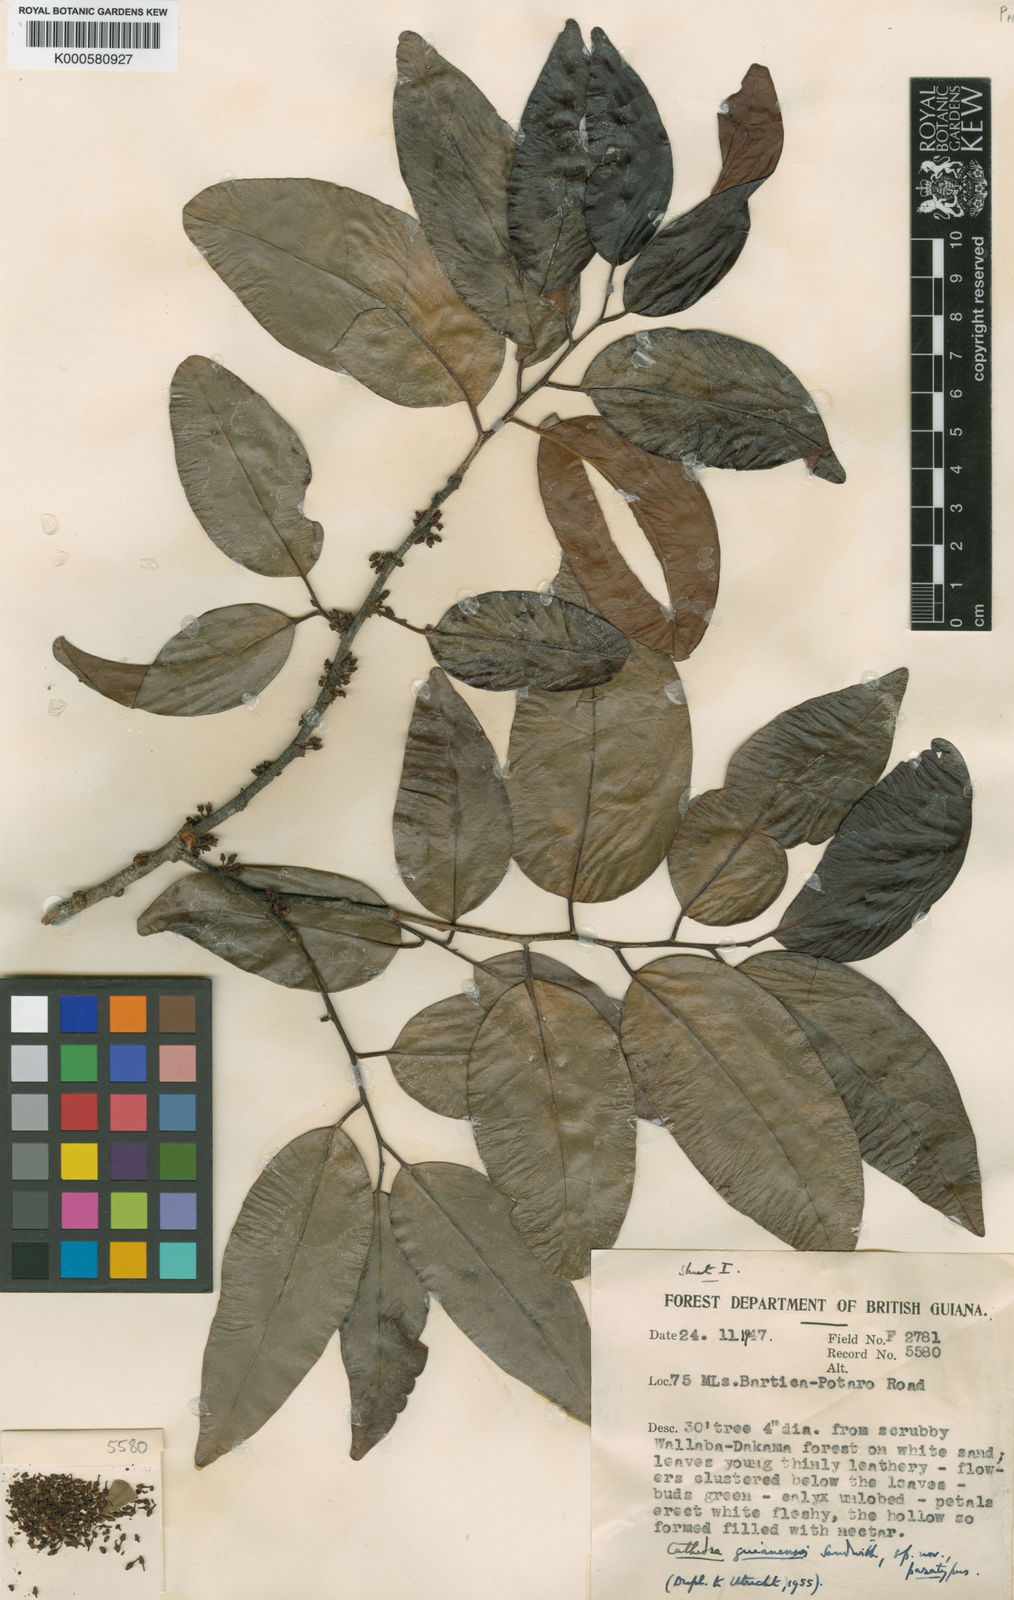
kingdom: Plantae
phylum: Tracheophyta
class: Magnoliopsida
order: Santalales
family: Aptandraceae
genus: Cathedra
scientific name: Cathedra acuminata
